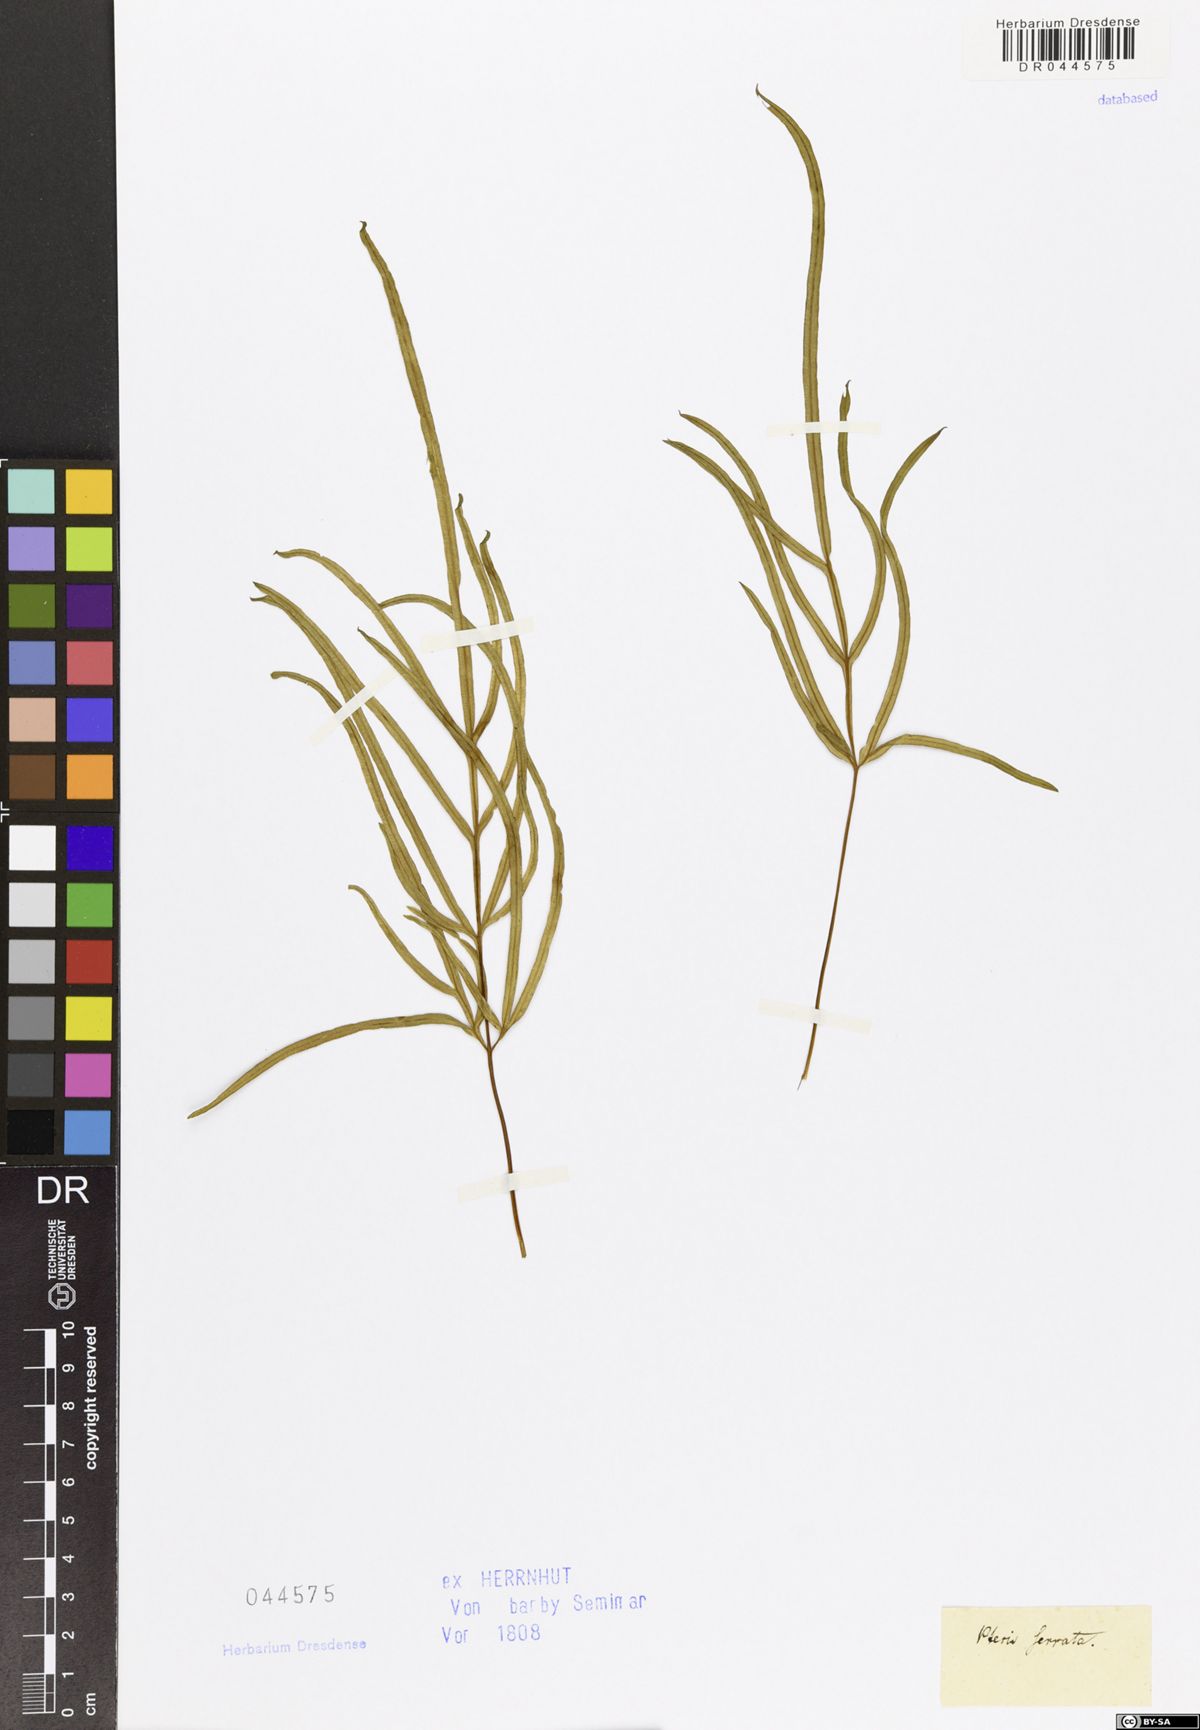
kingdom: Plantae
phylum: Tracheophyta
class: Polypodiopsida
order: Polypodiales
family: Pteridaceae
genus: Pteris
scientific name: Pteris
